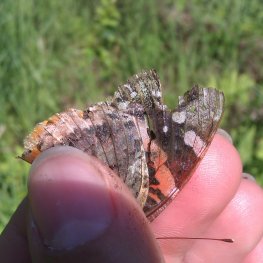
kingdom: Animalia
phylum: Arthropoda
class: Insecta
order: Lepidoptera
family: Nymphalidae
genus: Vanessa
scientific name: Vanessa atalanta
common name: Red Admiral
